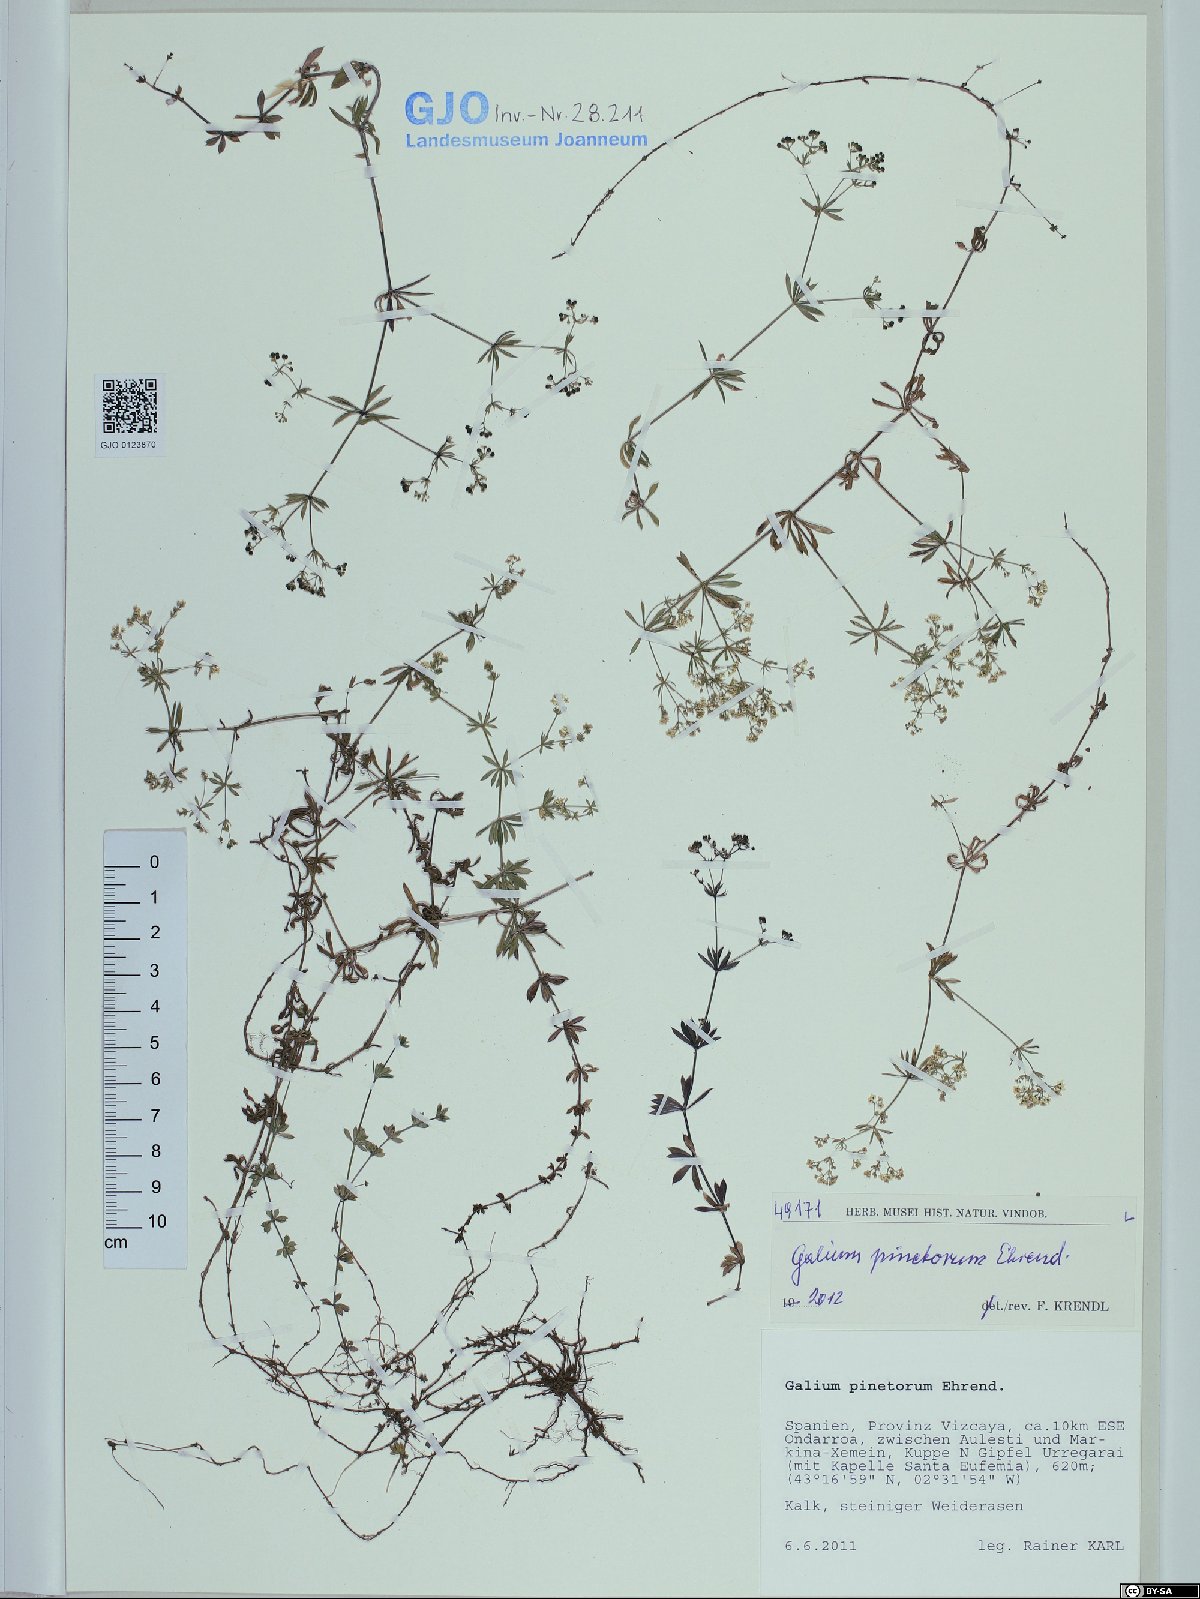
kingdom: Plantae
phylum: Tracheophyta
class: Magnoliopsida
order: Gentianales
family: Rubiaceae
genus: Galium
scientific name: Galium estebanii
